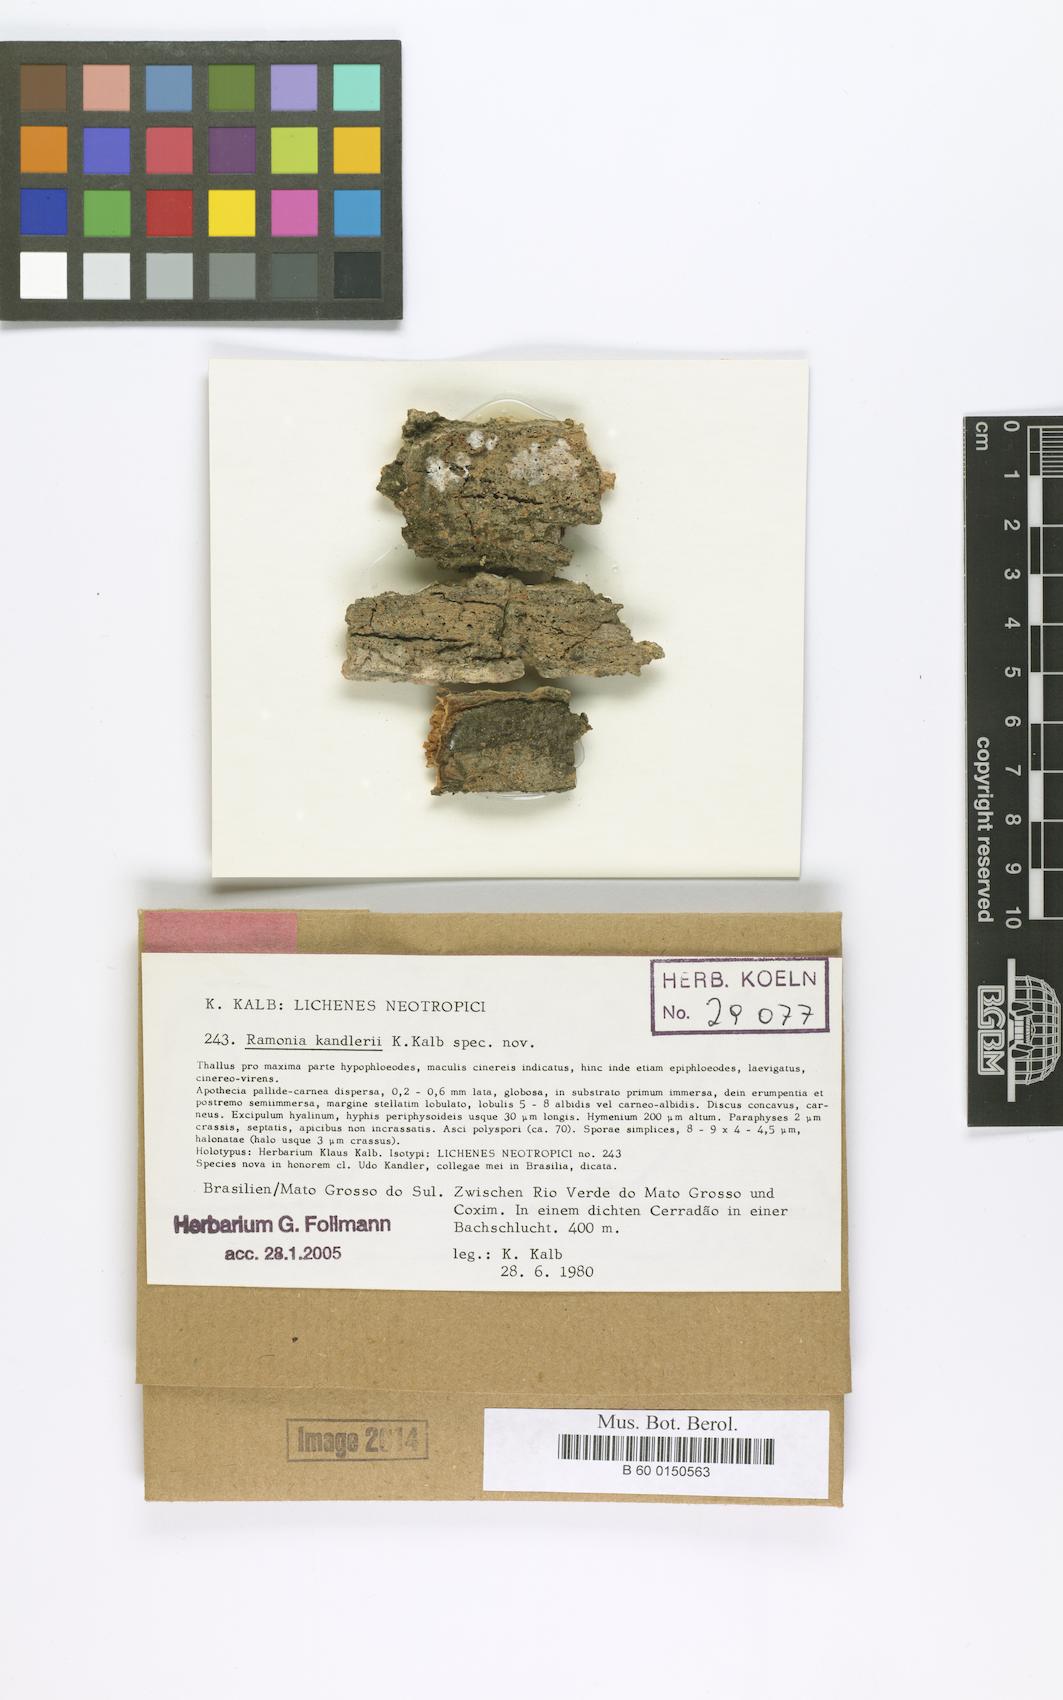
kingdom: Fungi
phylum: Ascomycota
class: Lecanoromycetes
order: Gyalectales
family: Gyalectaceae
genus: Ramonia
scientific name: Ramonia kandlerii
